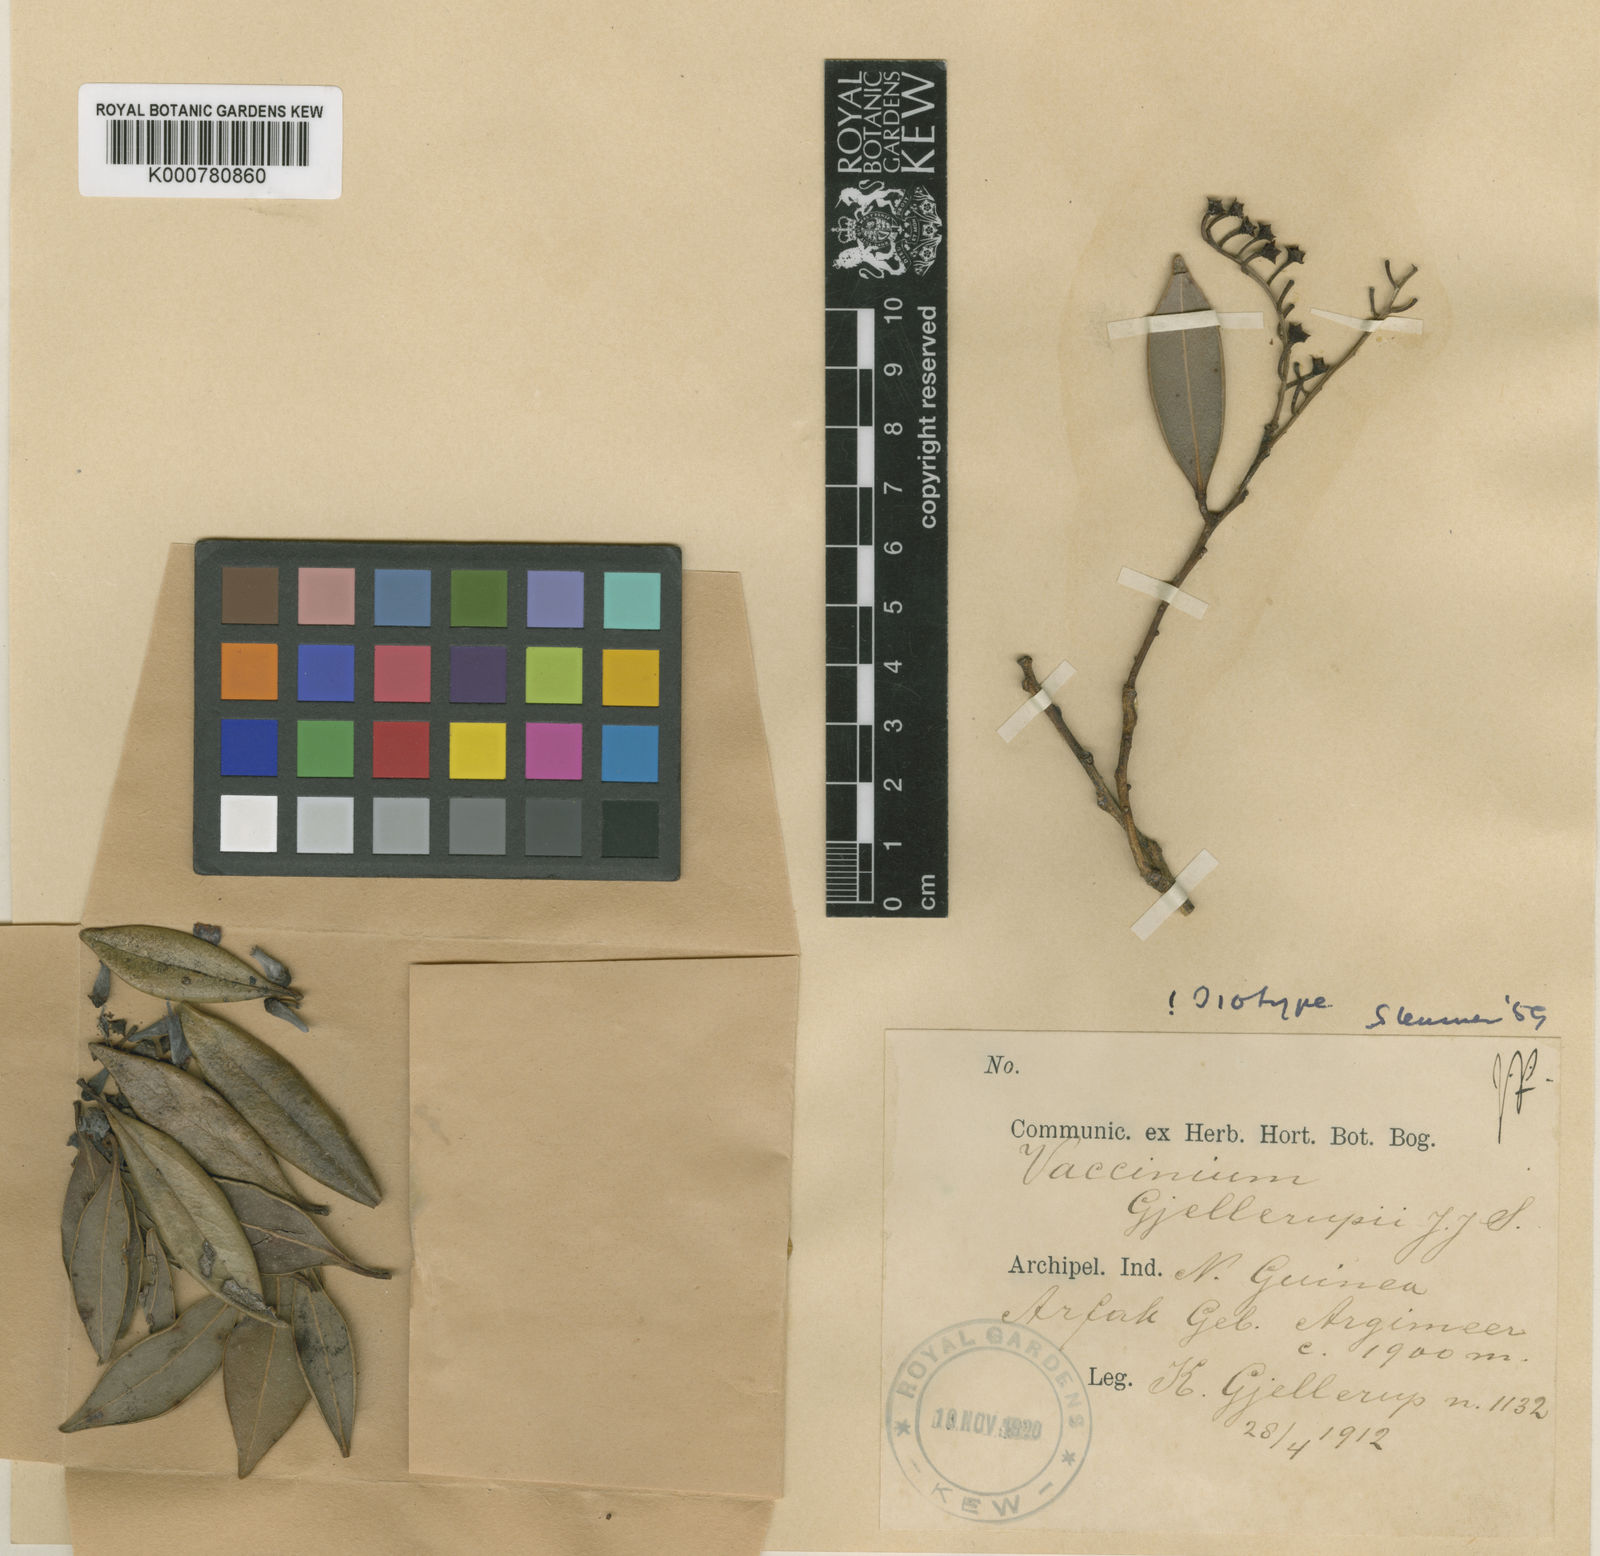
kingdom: Plantae
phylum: Tracheophyta
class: Magnoliopsida
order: Ericales
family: Ericaceae
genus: Vaccinium
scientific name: Vaccinium gjellerupii
